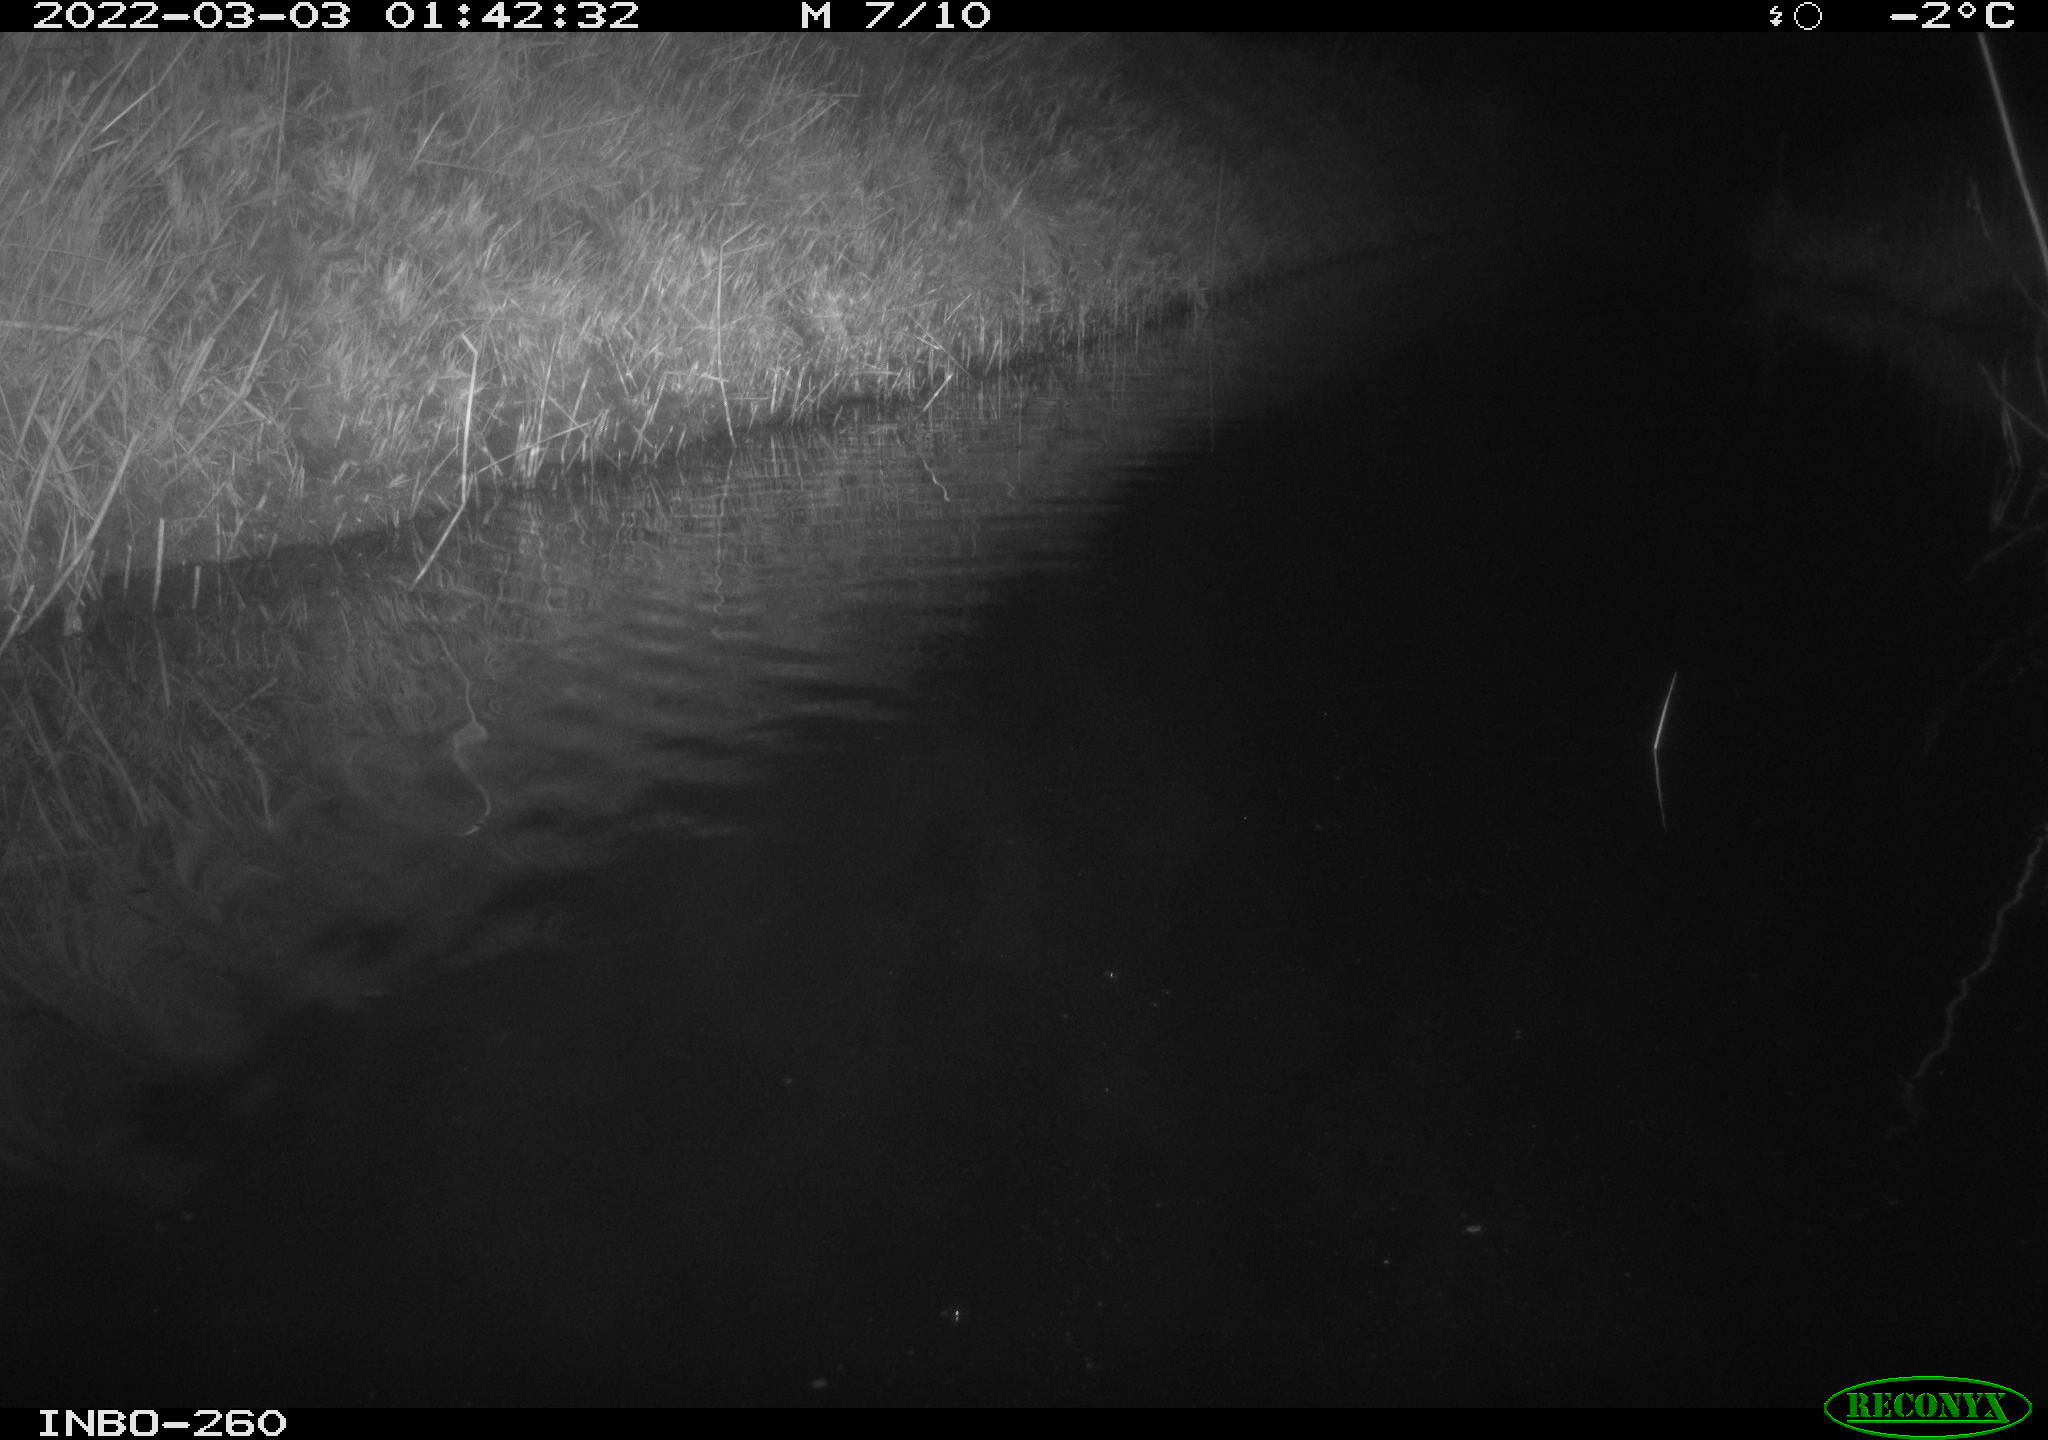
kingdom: Animalia
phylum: Chordata
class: Mammalia
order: Rodentia
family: Cricetidae
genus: Ondatra
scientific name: Ondatra zibethicus
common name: Muskrat
